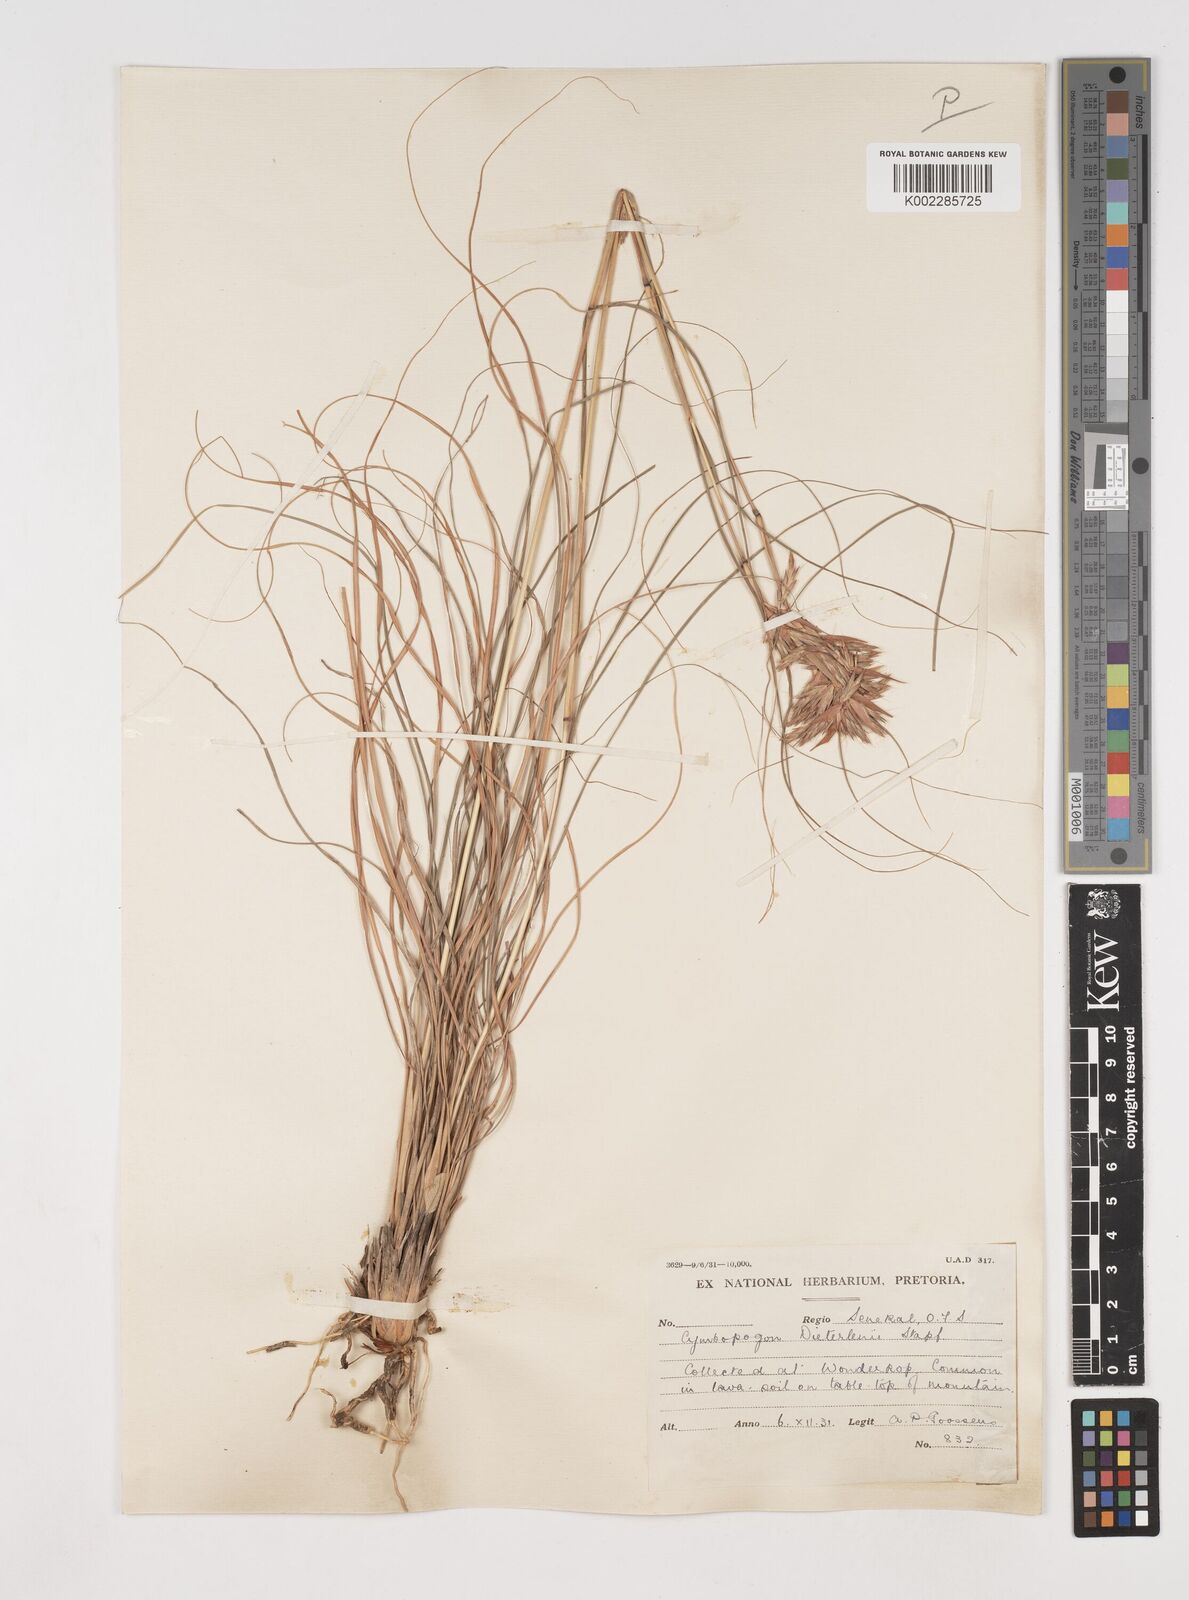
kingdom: Plantae
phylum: Tracheophyta
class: Liliopsida
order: Poales
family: Poaceae
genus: Cymbopogon
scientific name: Cymbopogon dieterlenii
